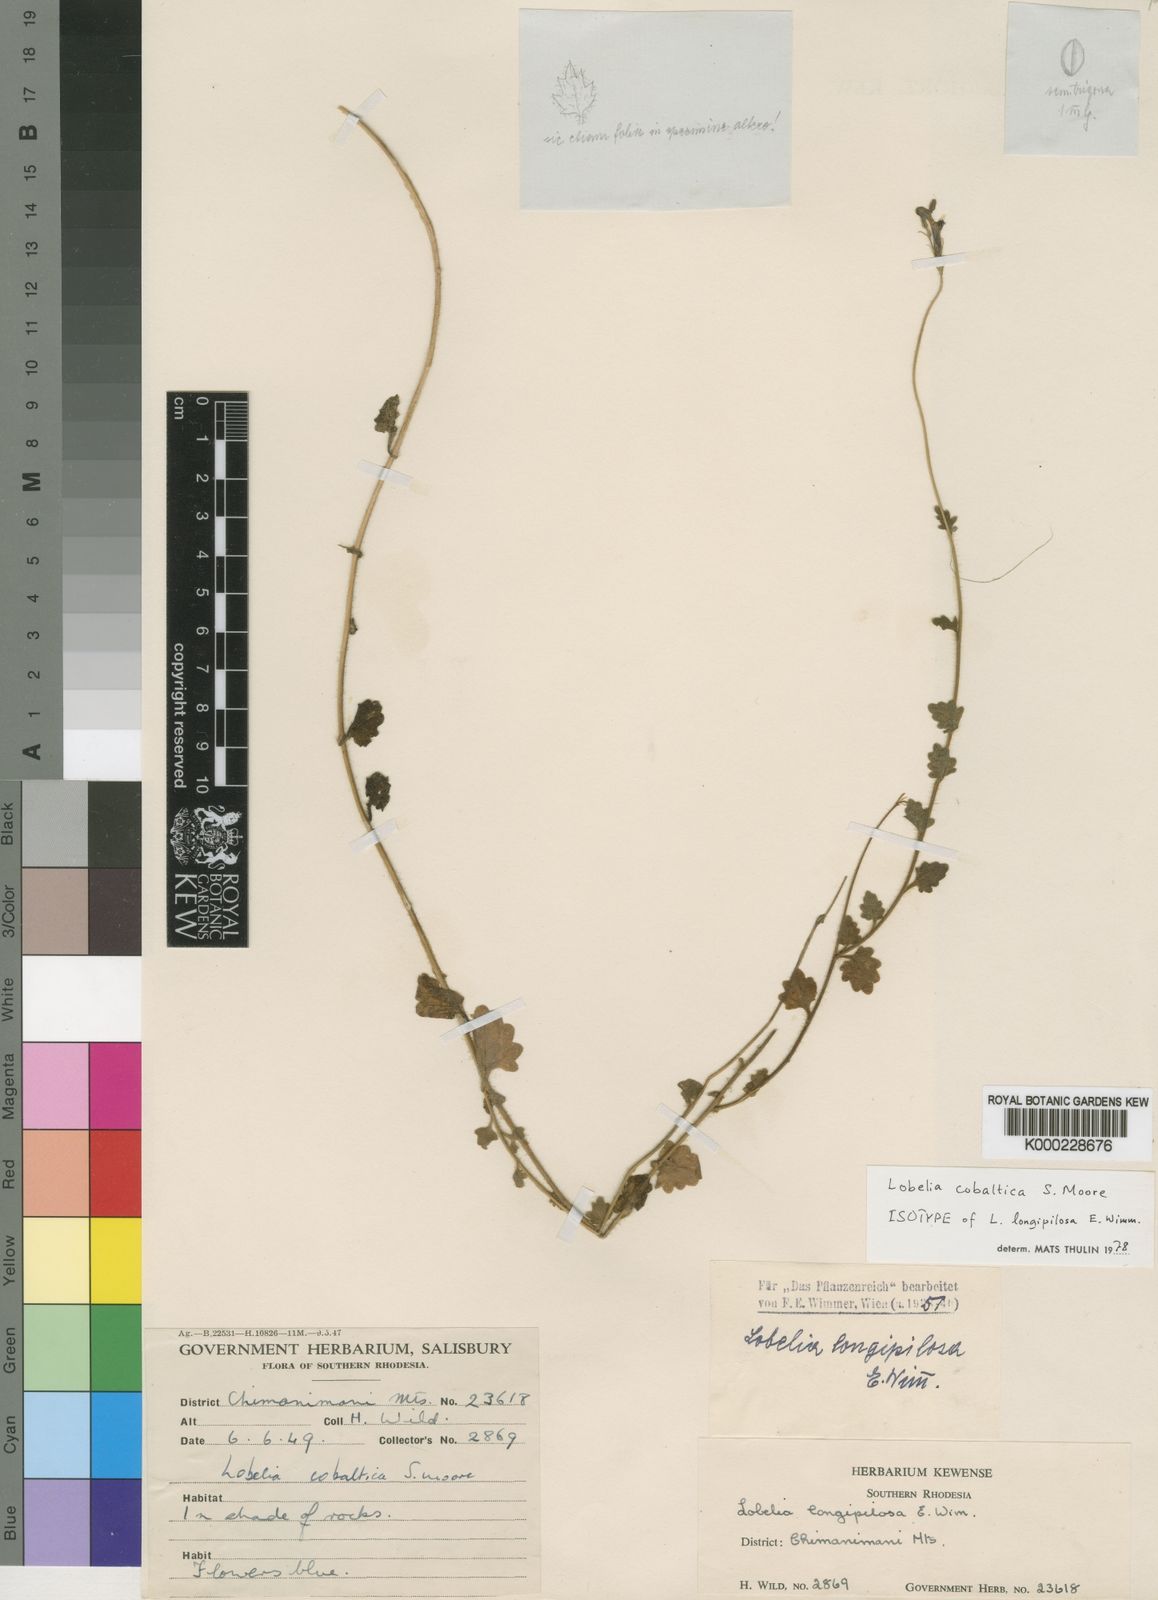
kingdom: Plantae
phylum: Tracheophyta
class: Magnoliopsida
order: Asterales
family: Campanulaceae
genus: Lobelia
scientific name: Lobelia cobaltica
